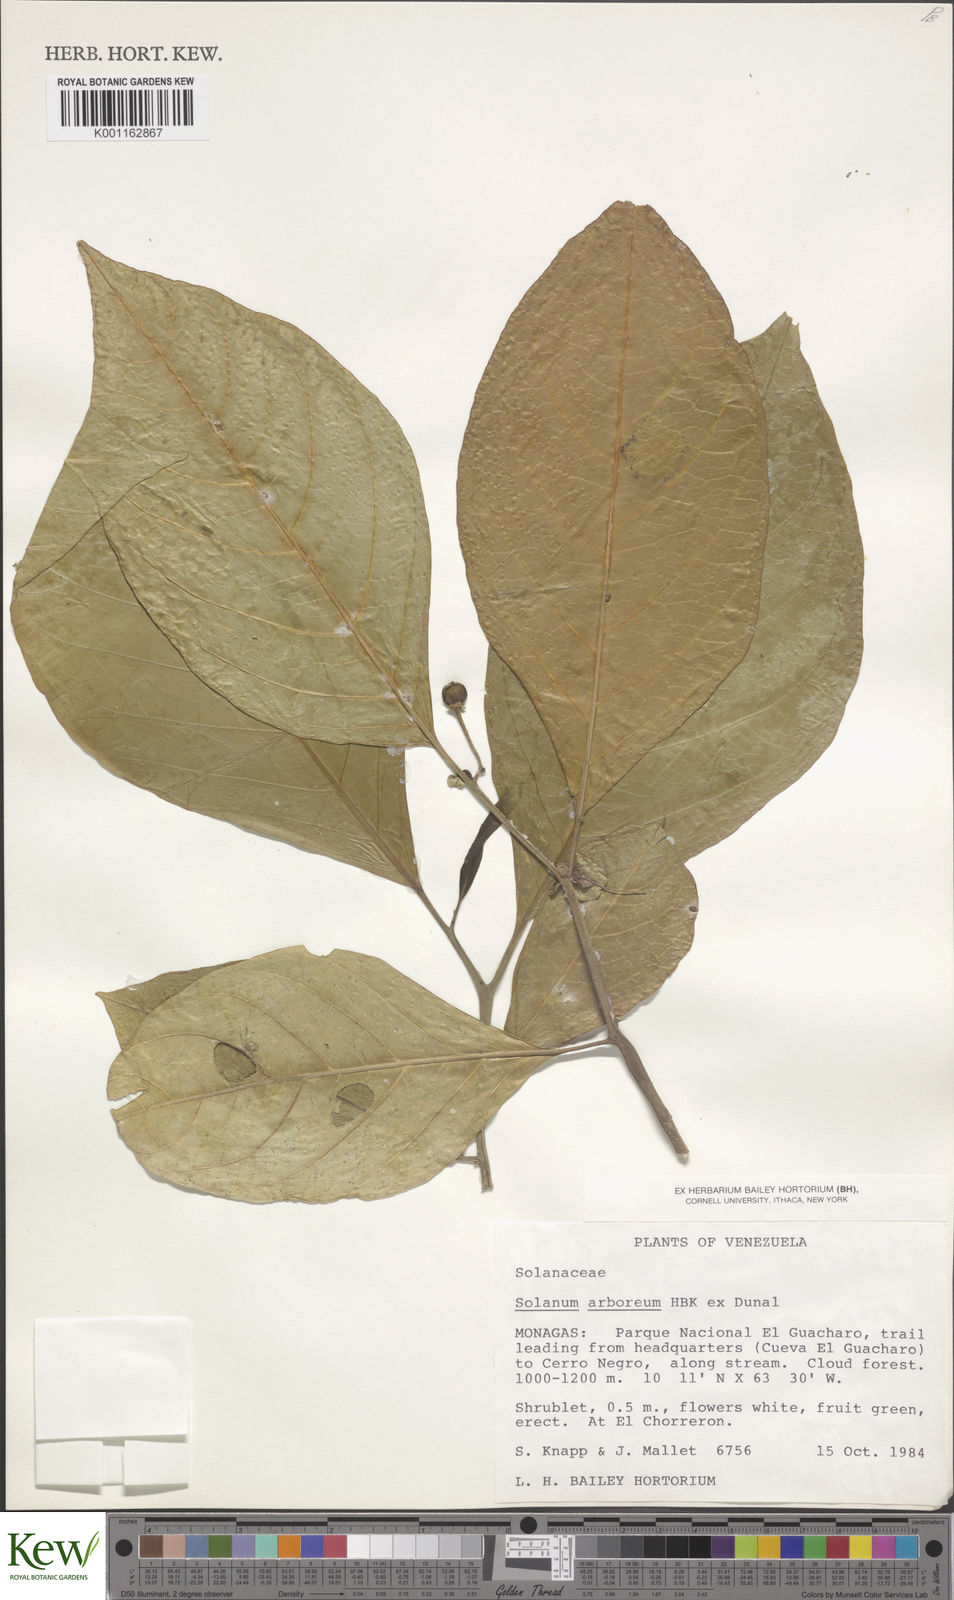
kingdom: Plantae
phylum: Tracheophyta
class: Magnoliopsida
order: Solanales
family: Solanaceae
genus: Solanum
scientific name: Solanum arboreum
